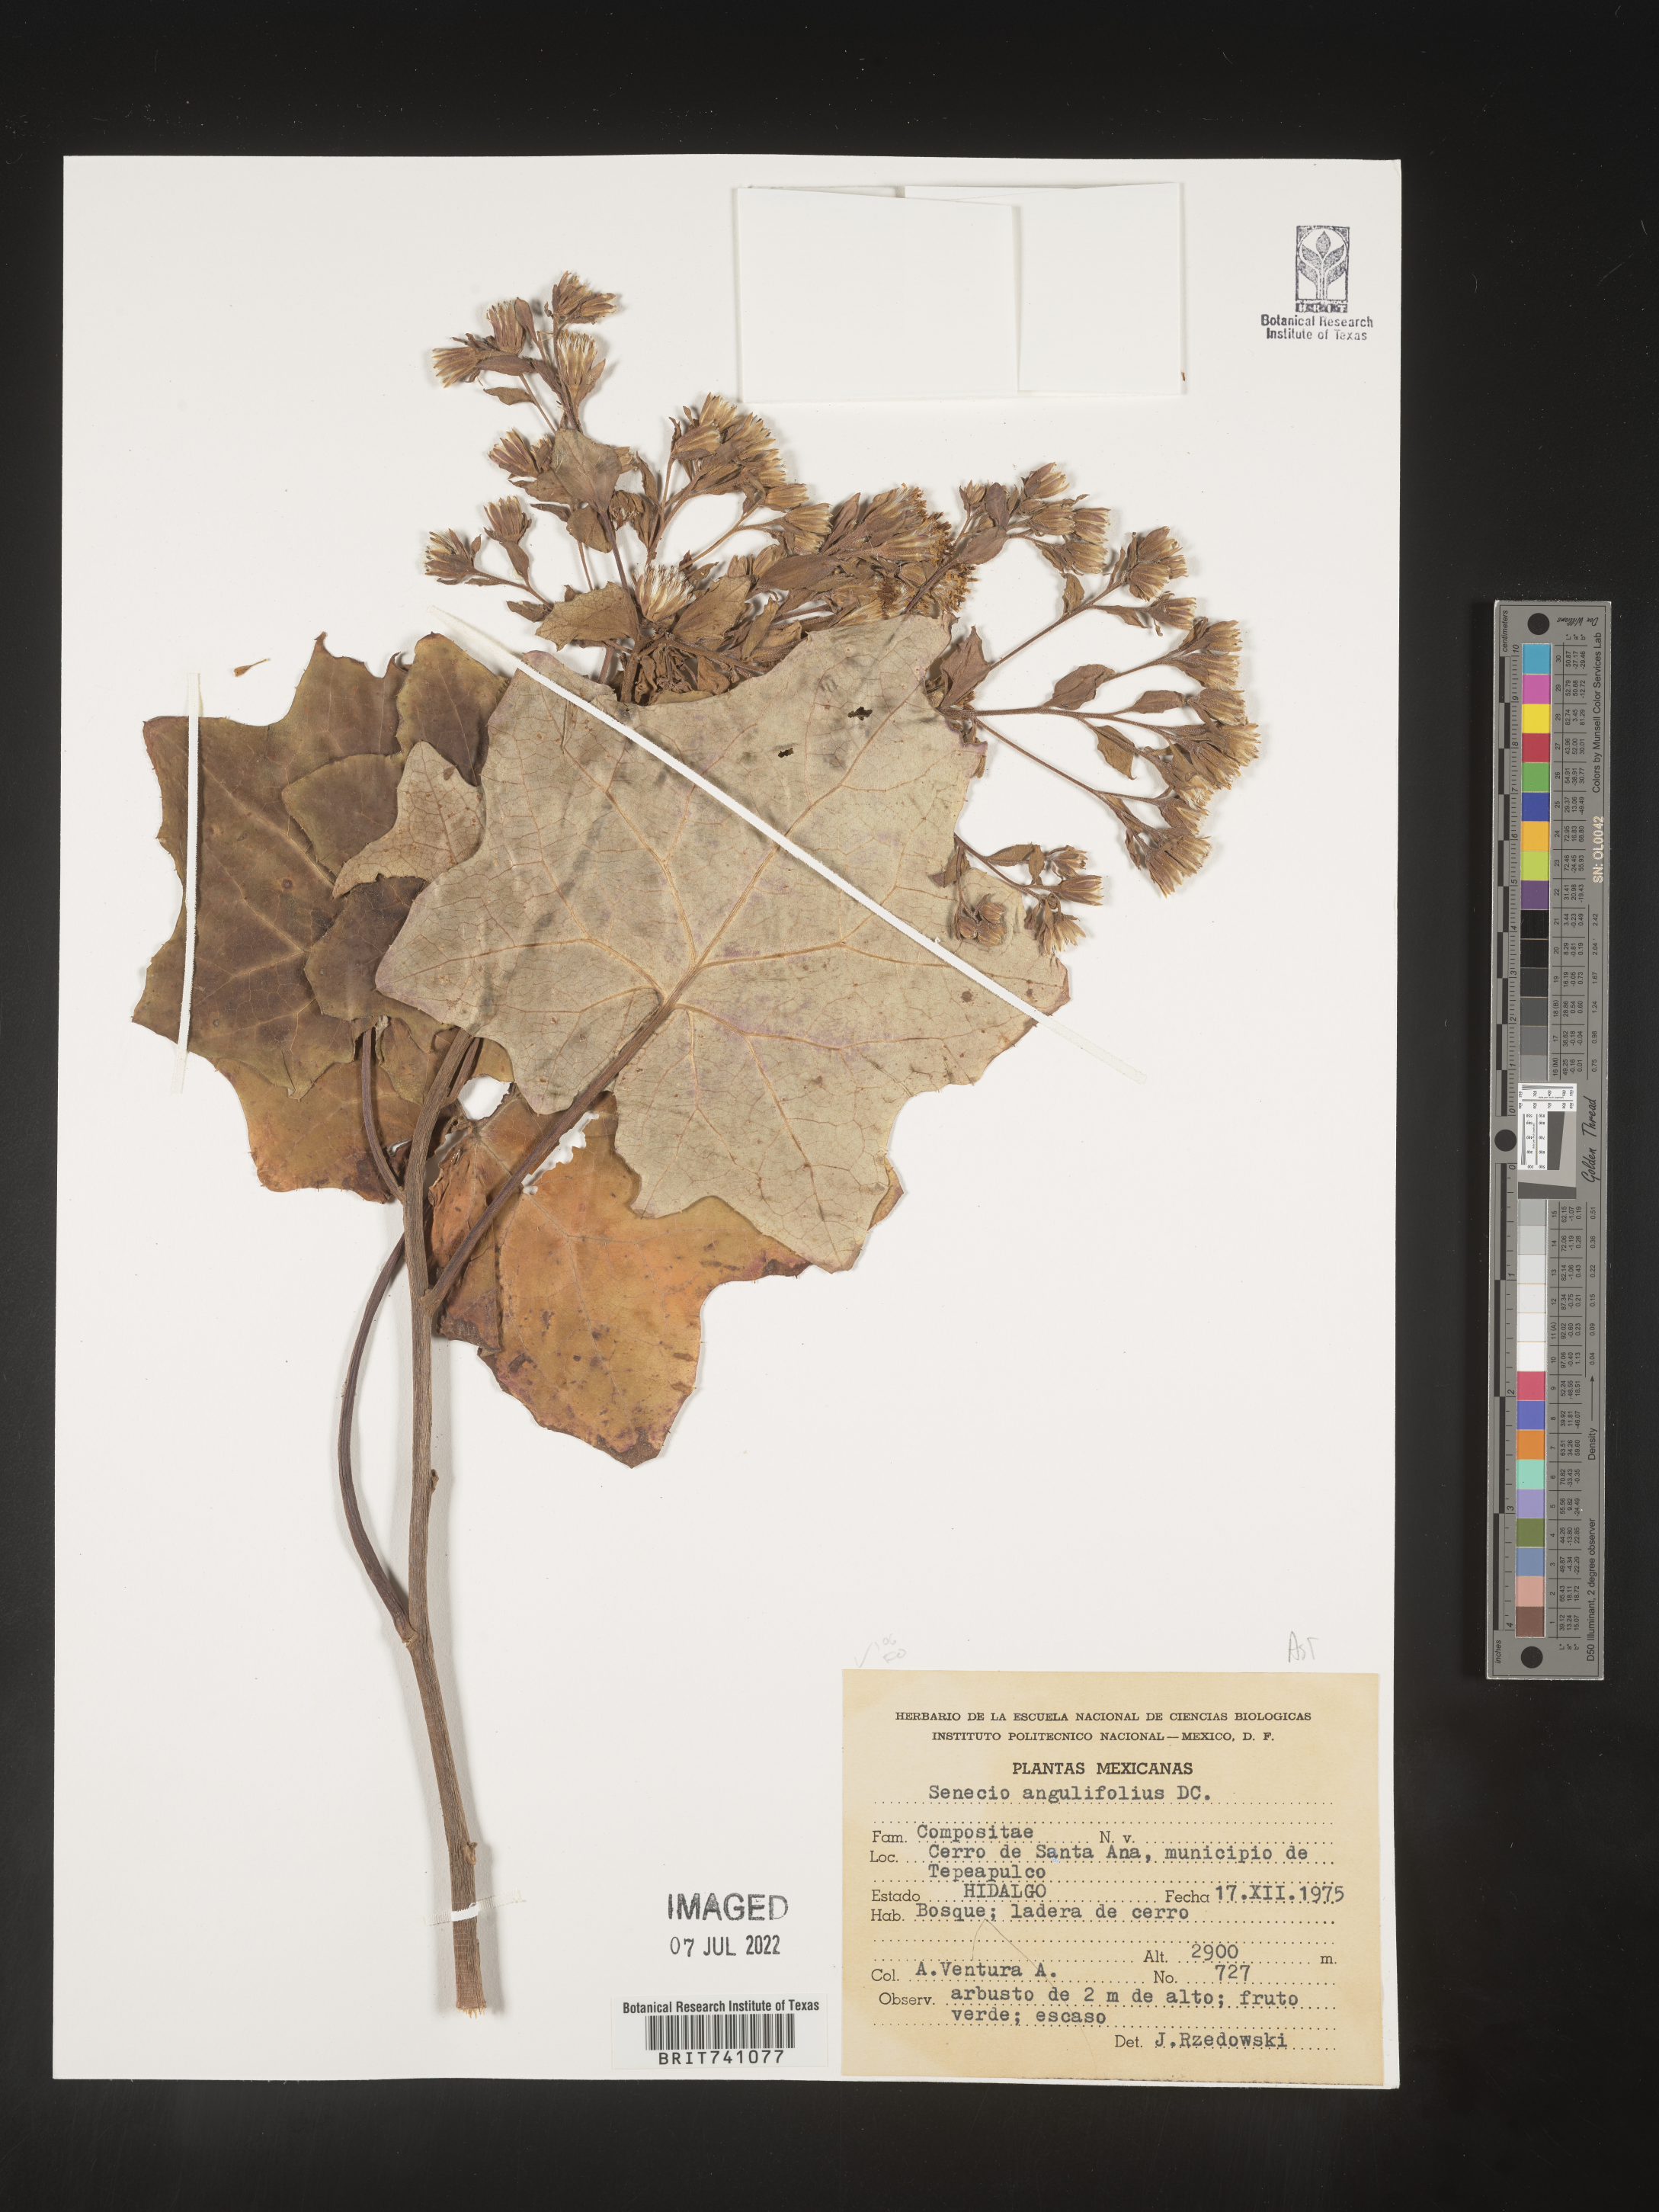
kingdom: Plantae
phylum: Tracheophyta
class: Magnoliopsida
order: Asterales
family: Asteraceae
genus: Senecio
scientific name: Senecio
